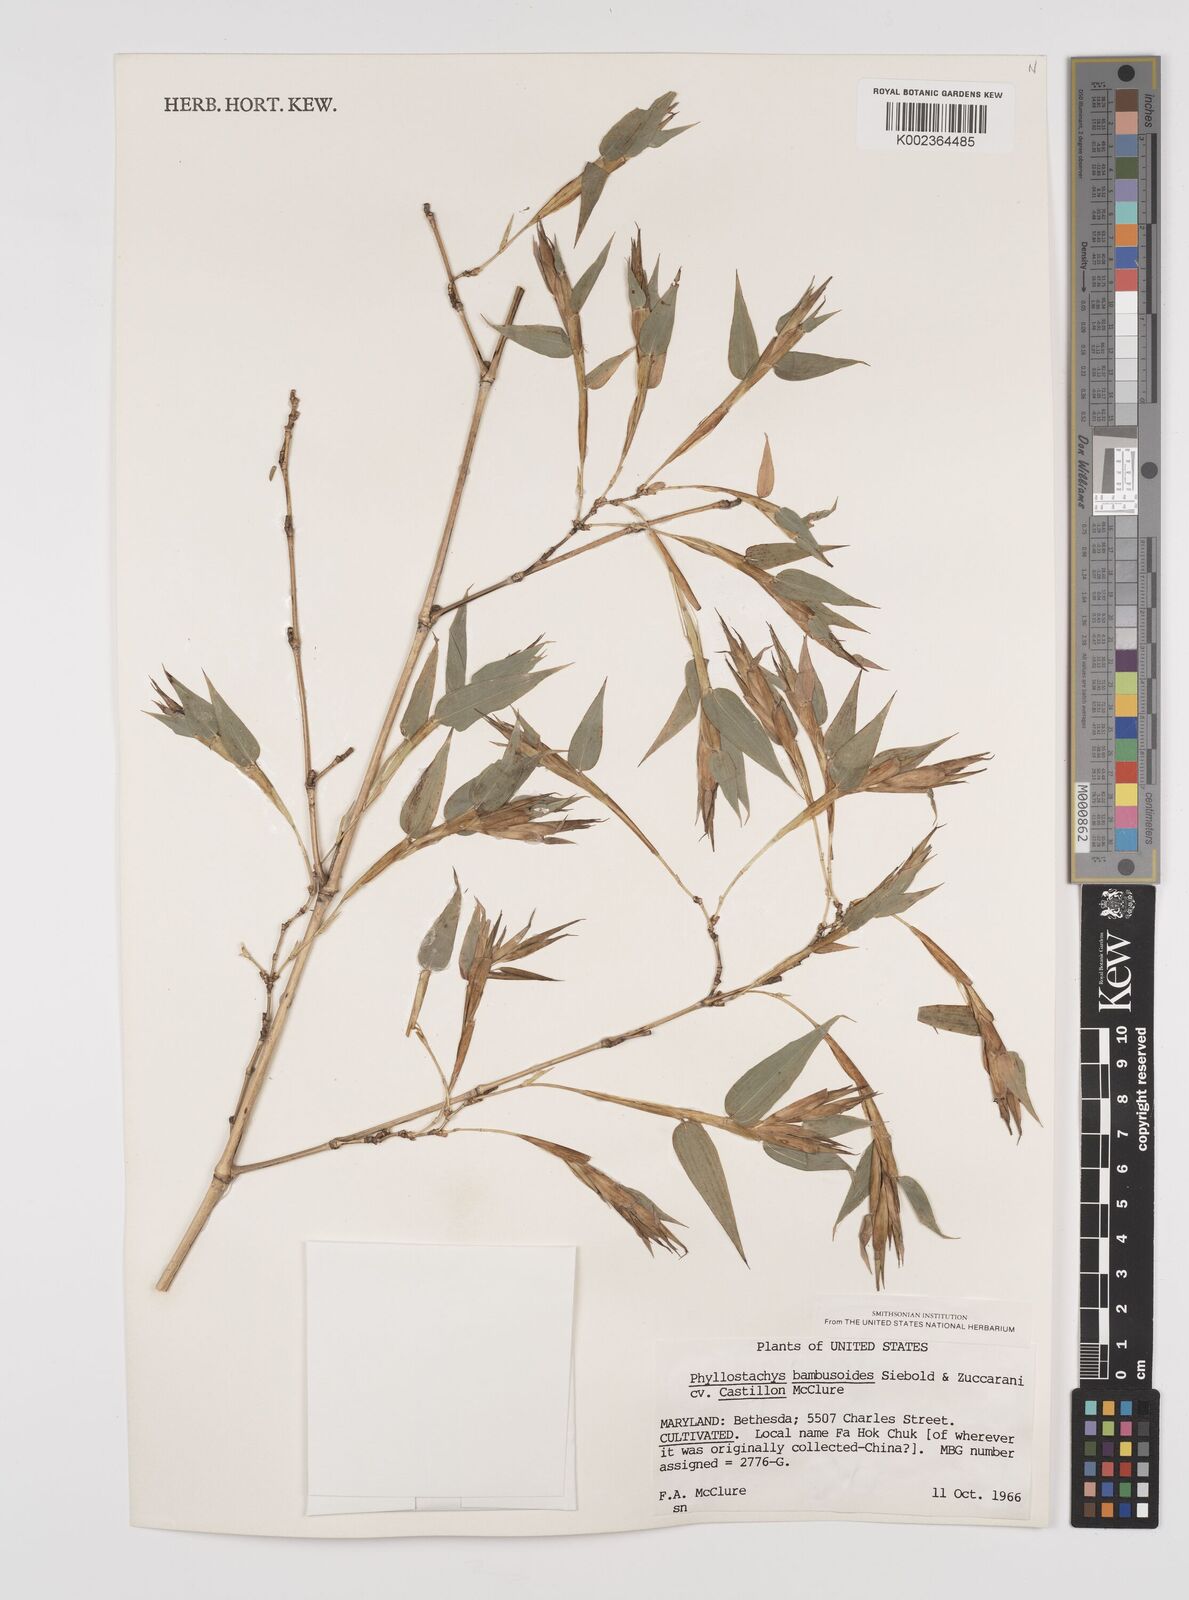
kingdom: Plantae
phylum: Tracheophyta
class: Liliopsida
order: Poales
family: Poaceae
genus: Phyllostachys
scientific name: Phyllostachys reticulata
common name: Bamboo
